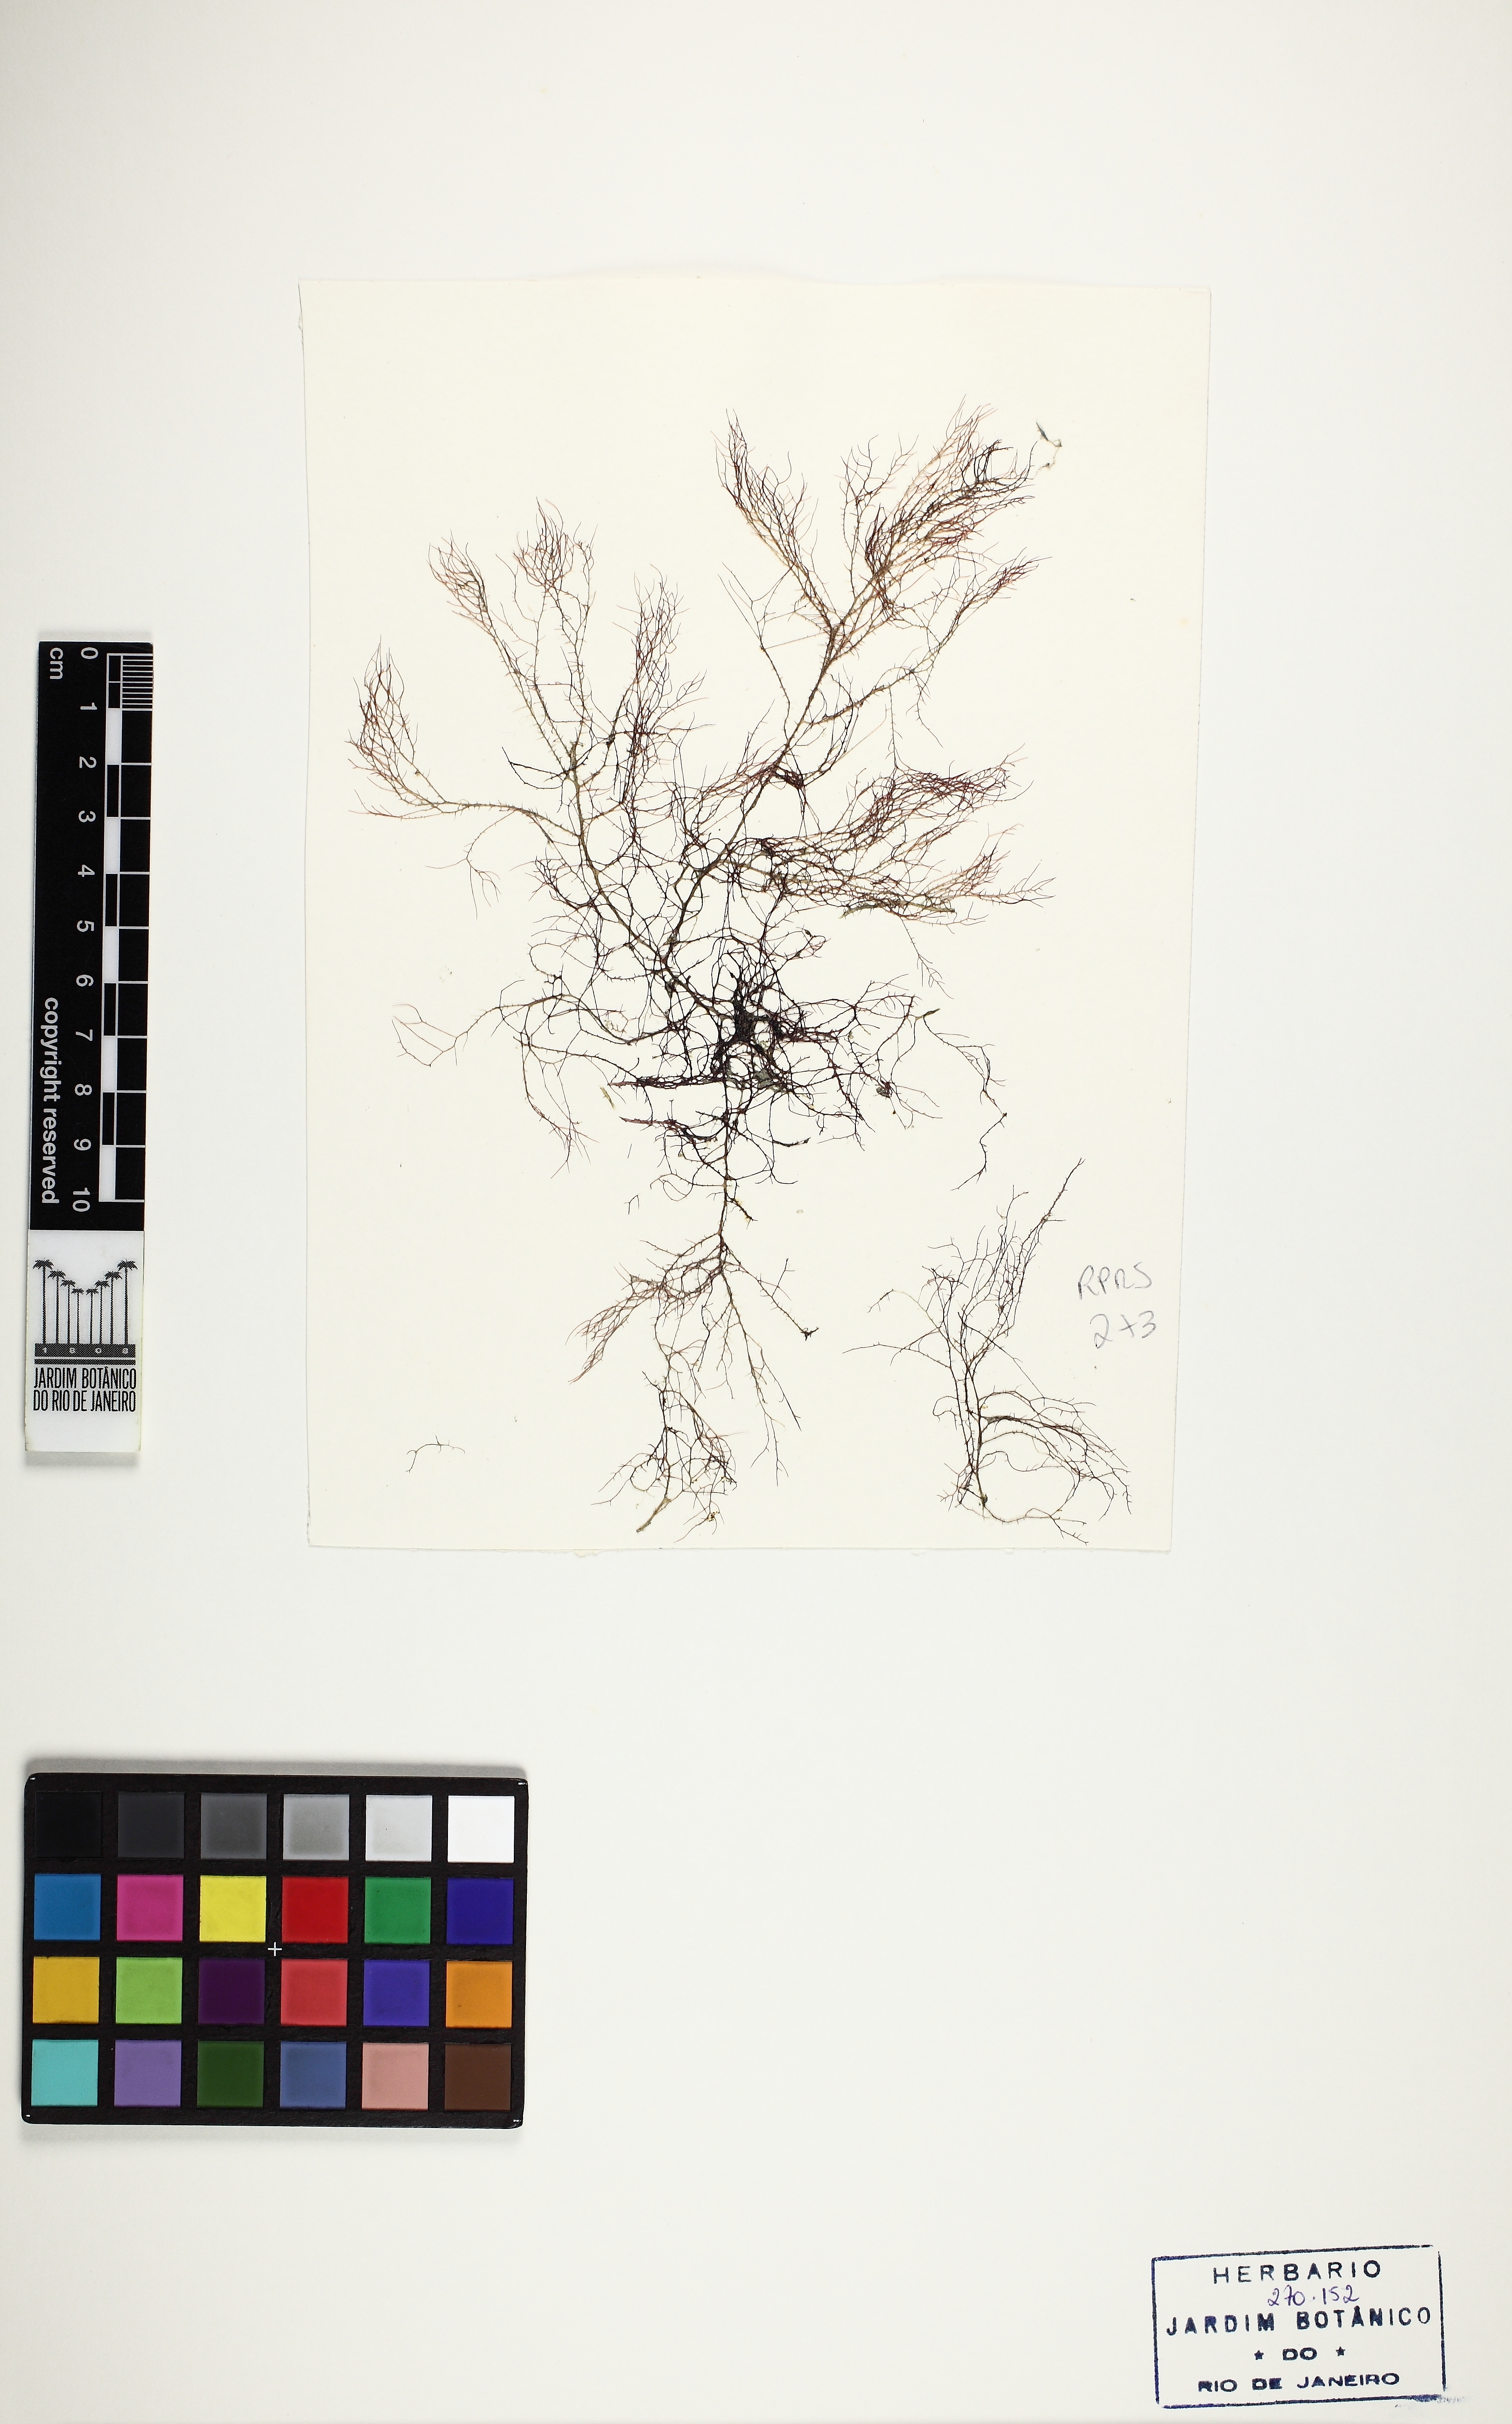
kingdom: Plantae
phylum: Rhodophyta
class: Florideophyceae
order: Gigartinales
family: Cystocloniaceae
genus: Hypnea
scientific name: Hypnea cornuta
